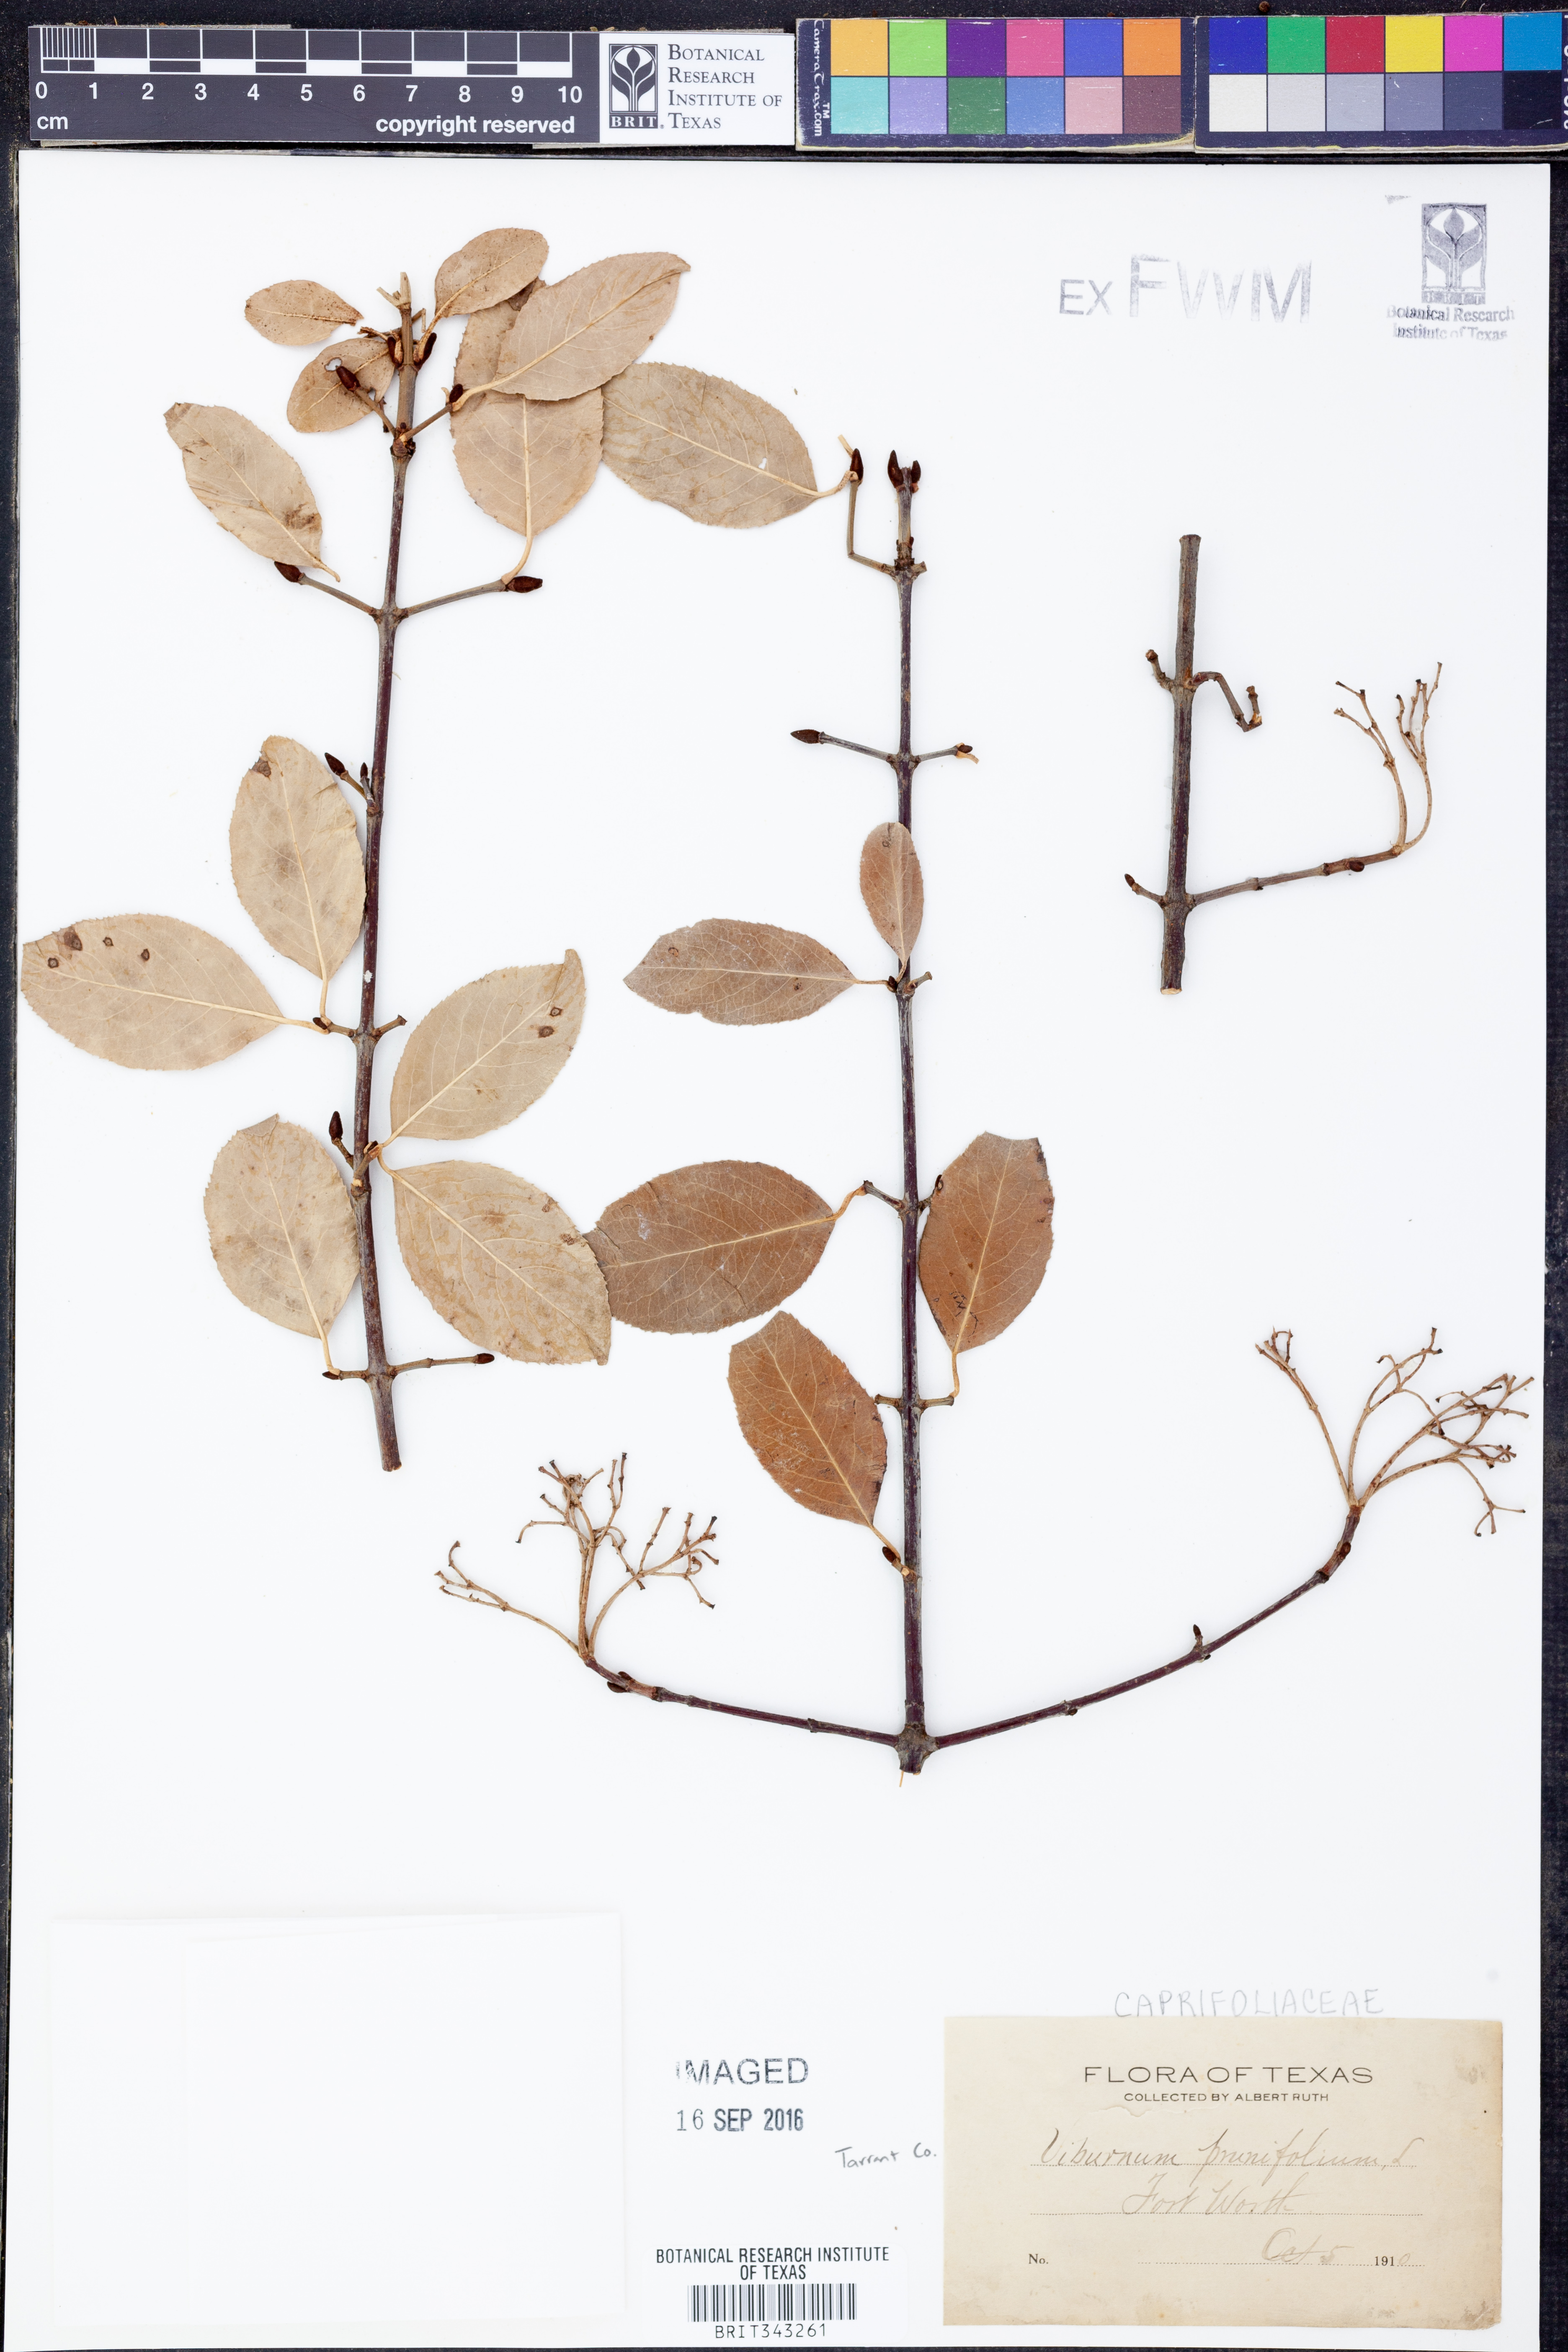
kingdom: Plantae
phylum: Tracheophyta
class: Magnoliopsida
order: Dipsacales
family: Viburnaceae
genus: Viburnum
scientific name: Viburnum prunifolium
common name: Black haw
